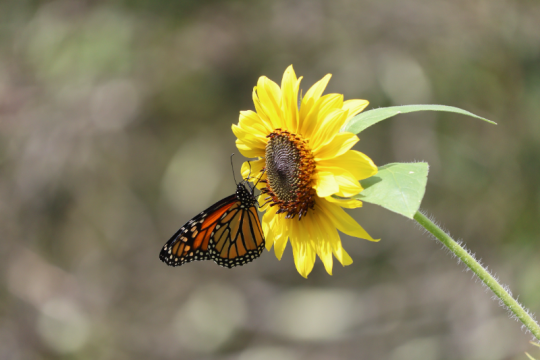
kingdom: Animalia
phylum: Arthropoda
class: Insecta
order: Lepidoptera
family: Nymphalidae
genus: Danaus
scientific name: Danaus plexippus
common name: Monarch
